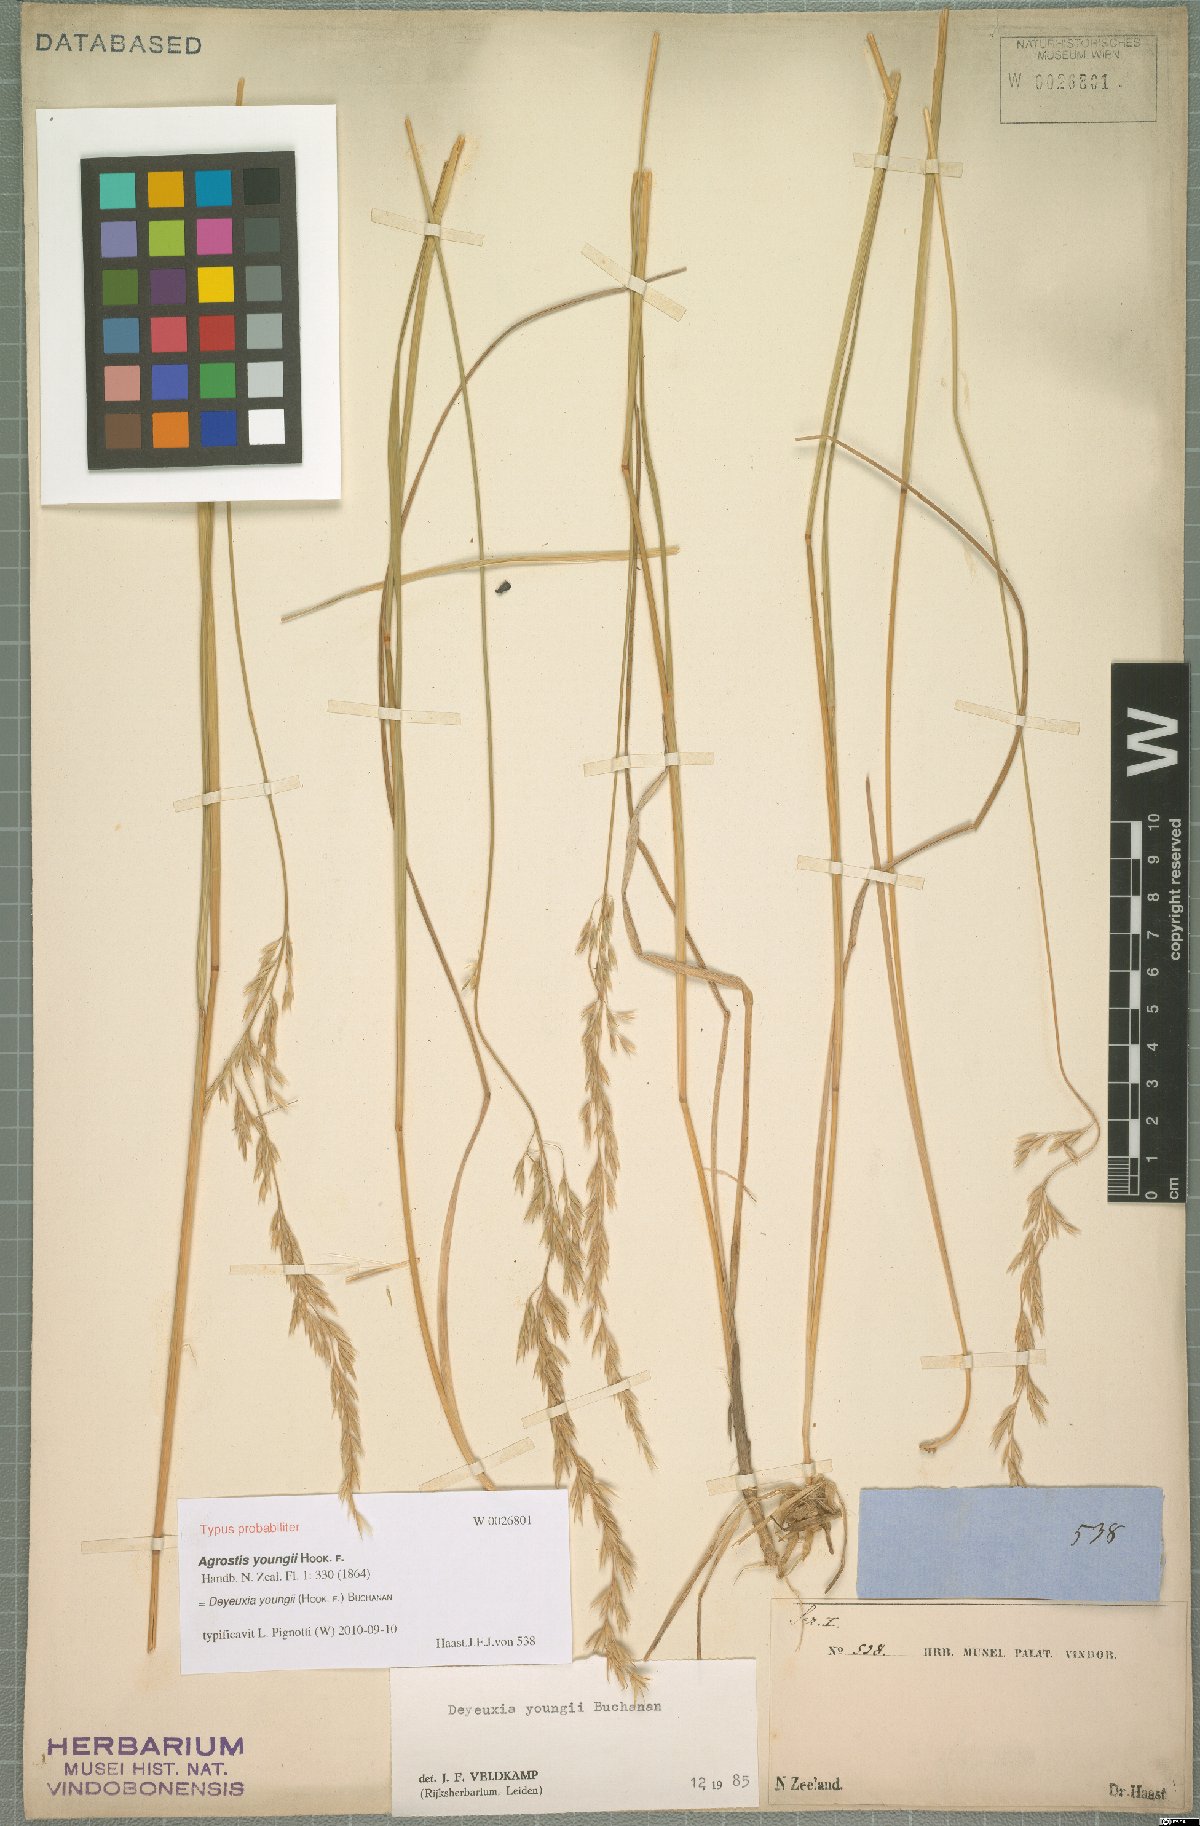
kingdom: Plantae
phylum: Tracheophyta
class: Liliopsida
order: Poales
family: Poaceae
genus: Calamagrostis
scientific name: Calamagrostis youngii
